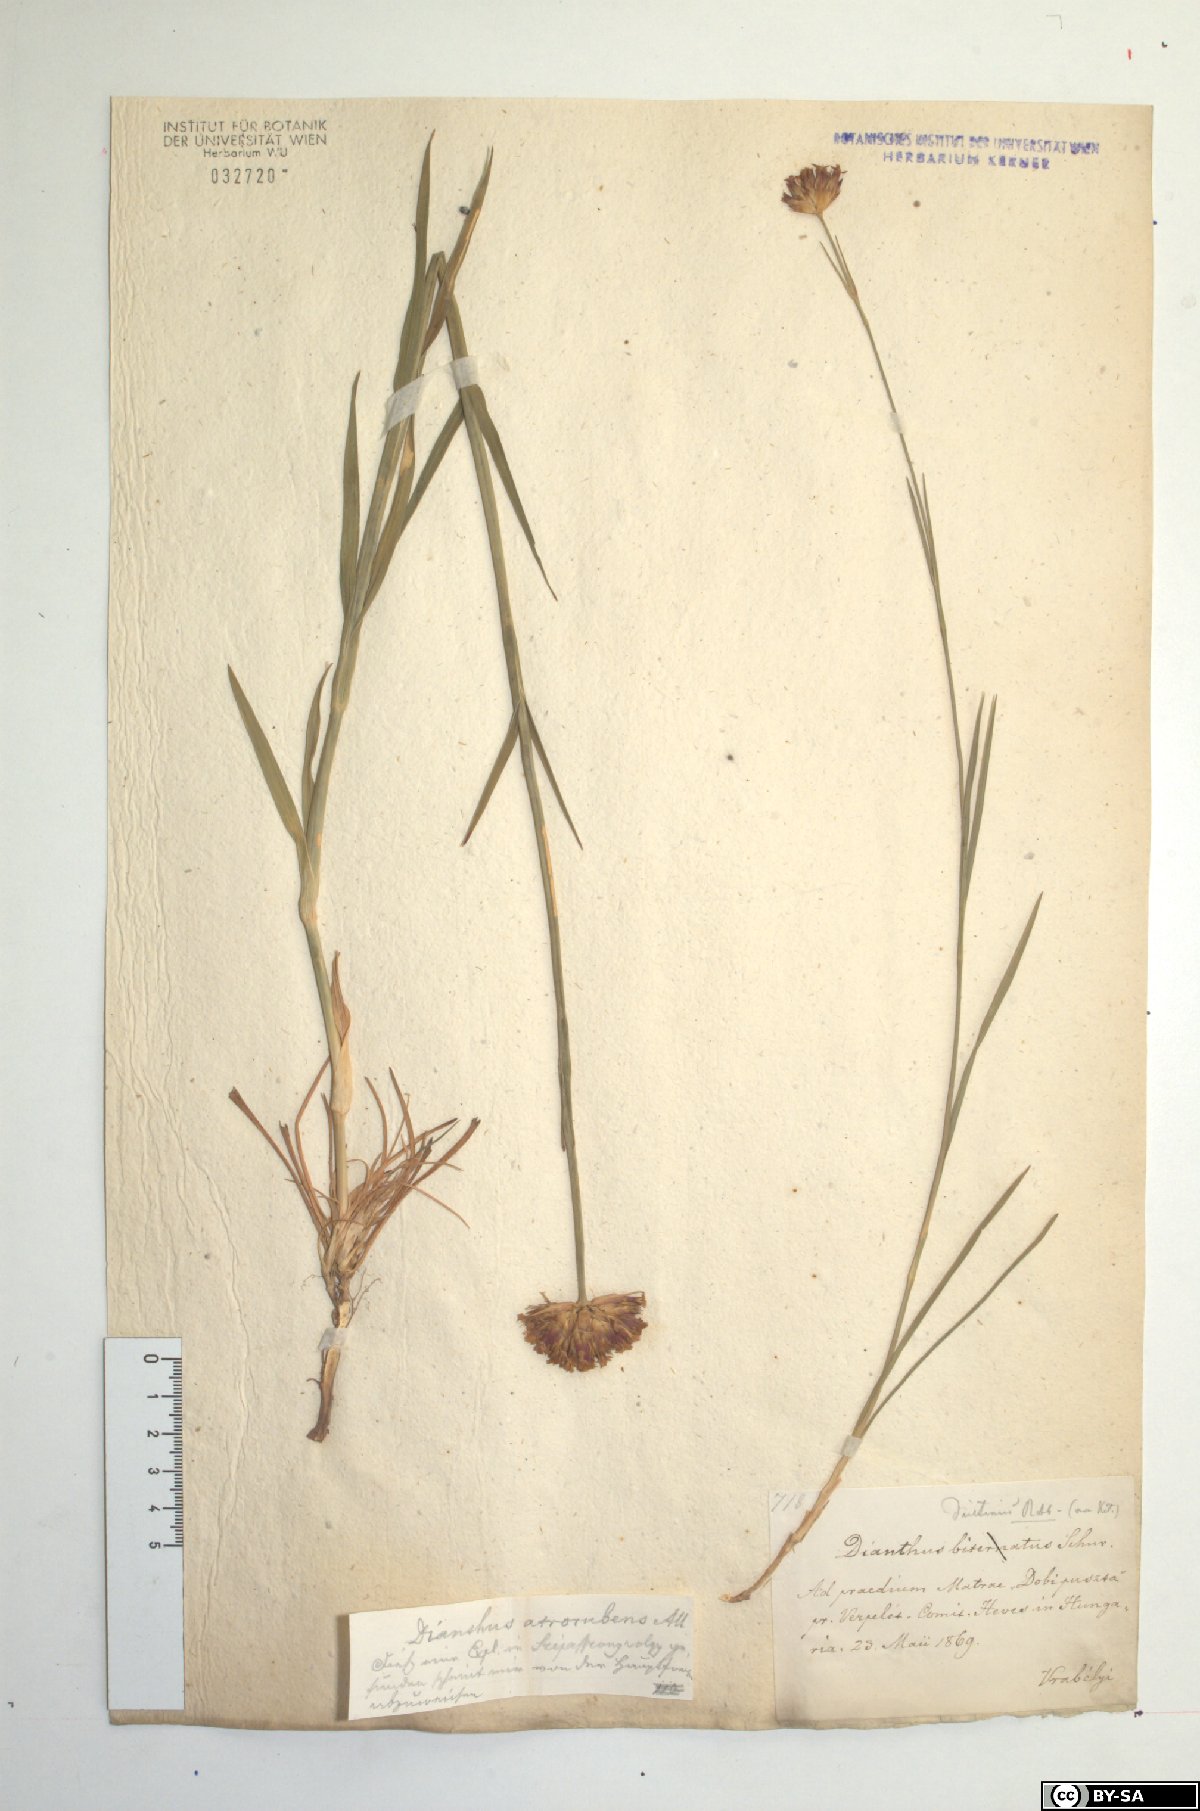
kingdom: Plantae
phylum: Tracheophyta
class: Magnoliopsida
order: Caryophyllales
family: Caryophyllaceae
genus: Dianthus
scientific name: Dianthus pontederae
